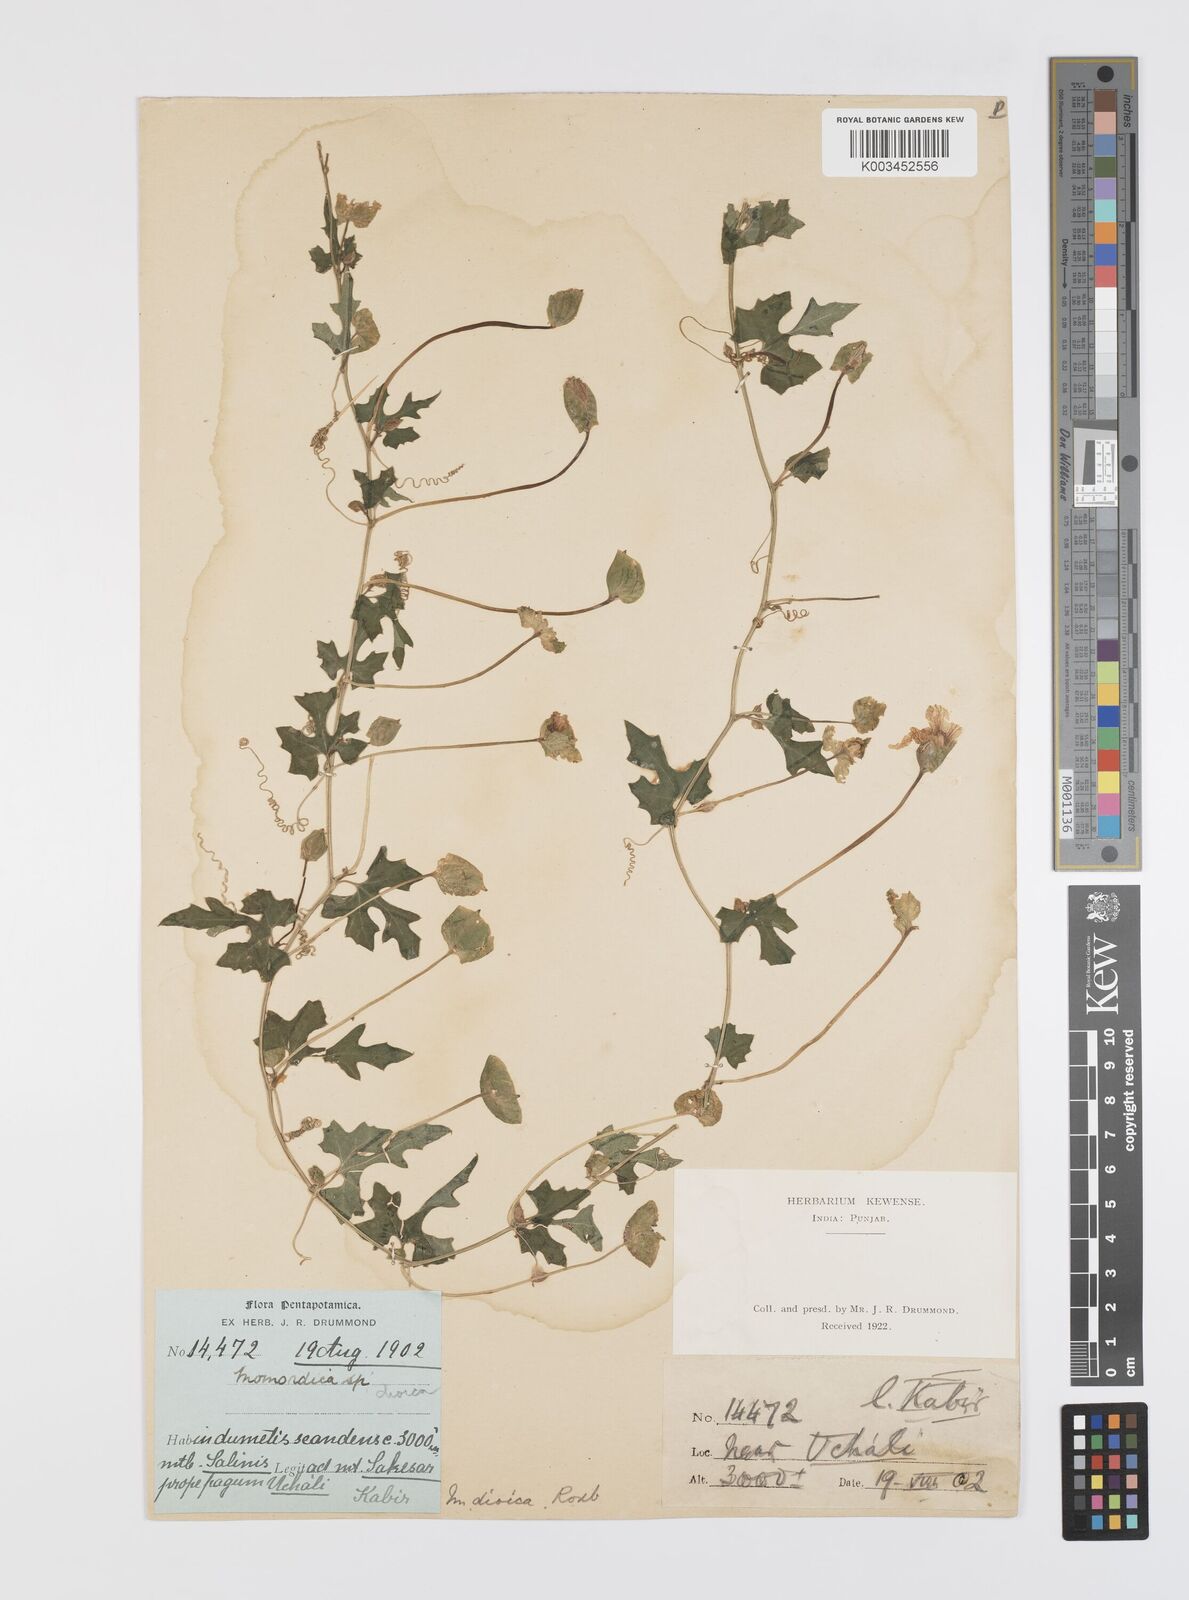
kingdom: Plantae
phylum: Tracheophyta
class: Magnoliopsida
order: Cucurbitales
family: Cucurbitaceae
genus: Momordica
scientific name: Momordica dioica
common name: Spine gourd
